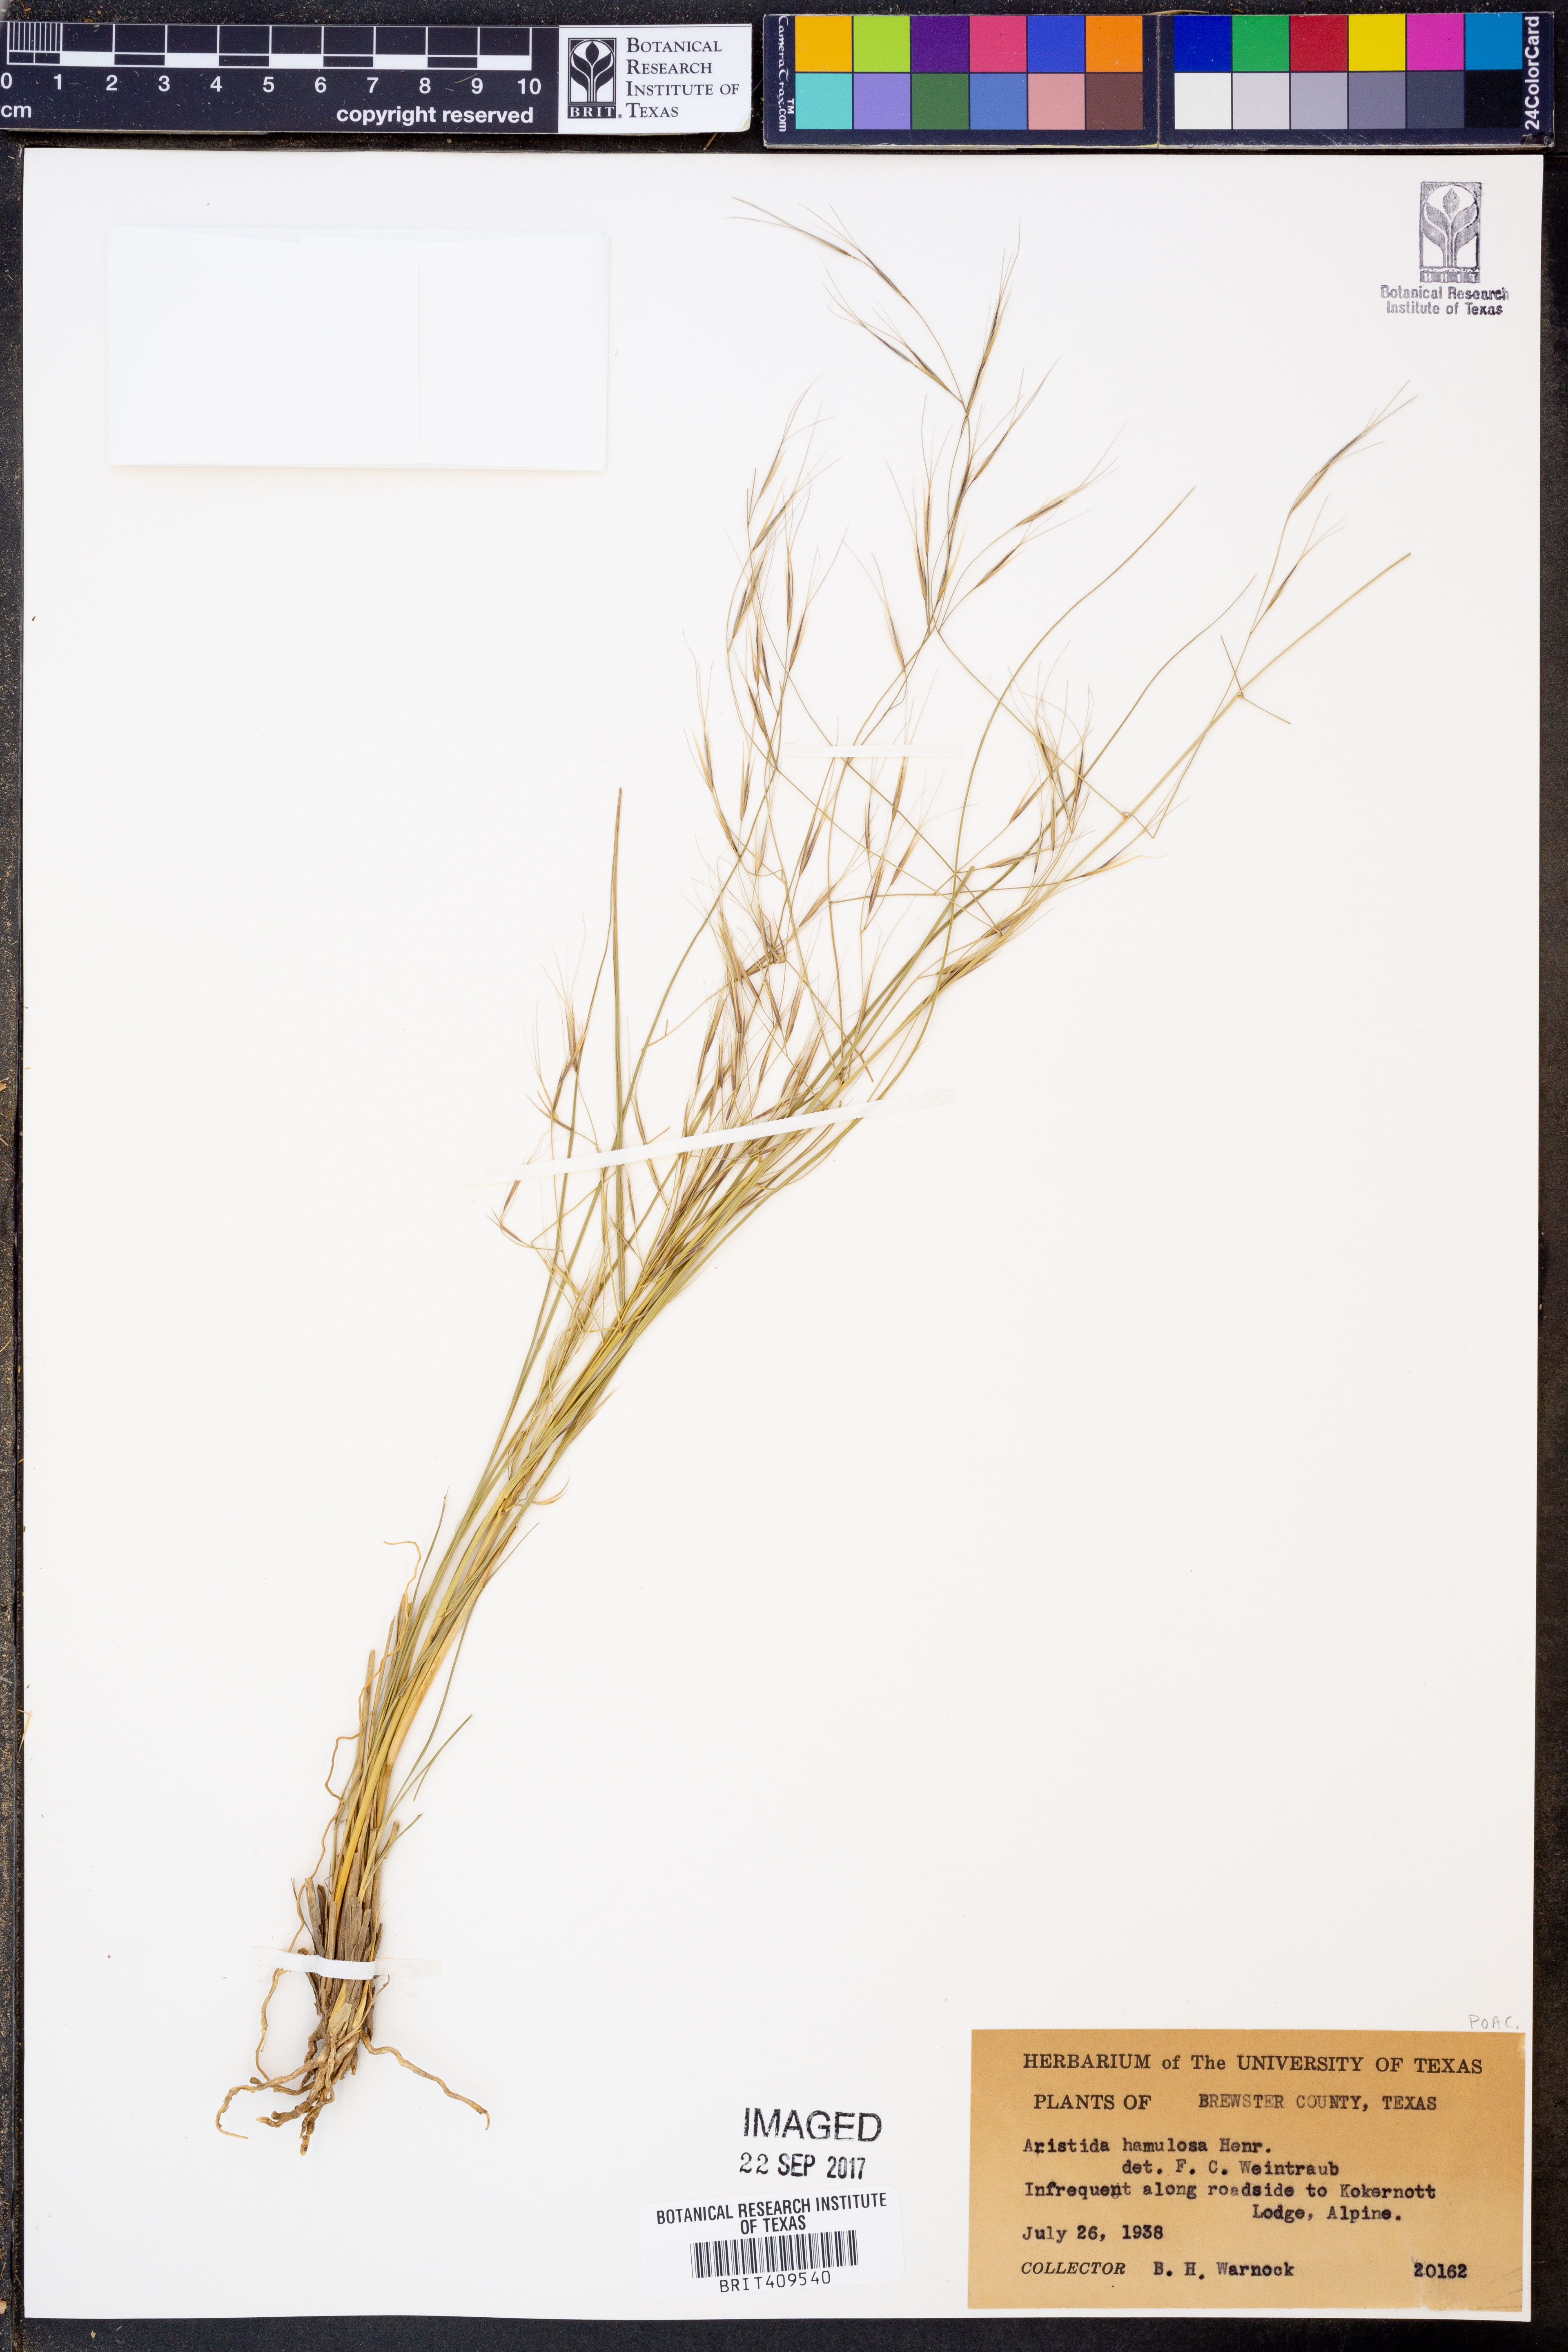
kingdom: Plantae
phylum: Tracheophyta
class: Liliopsida
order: Poales
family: Poaceae
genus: Aristida
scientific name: Aristida hamulosa
